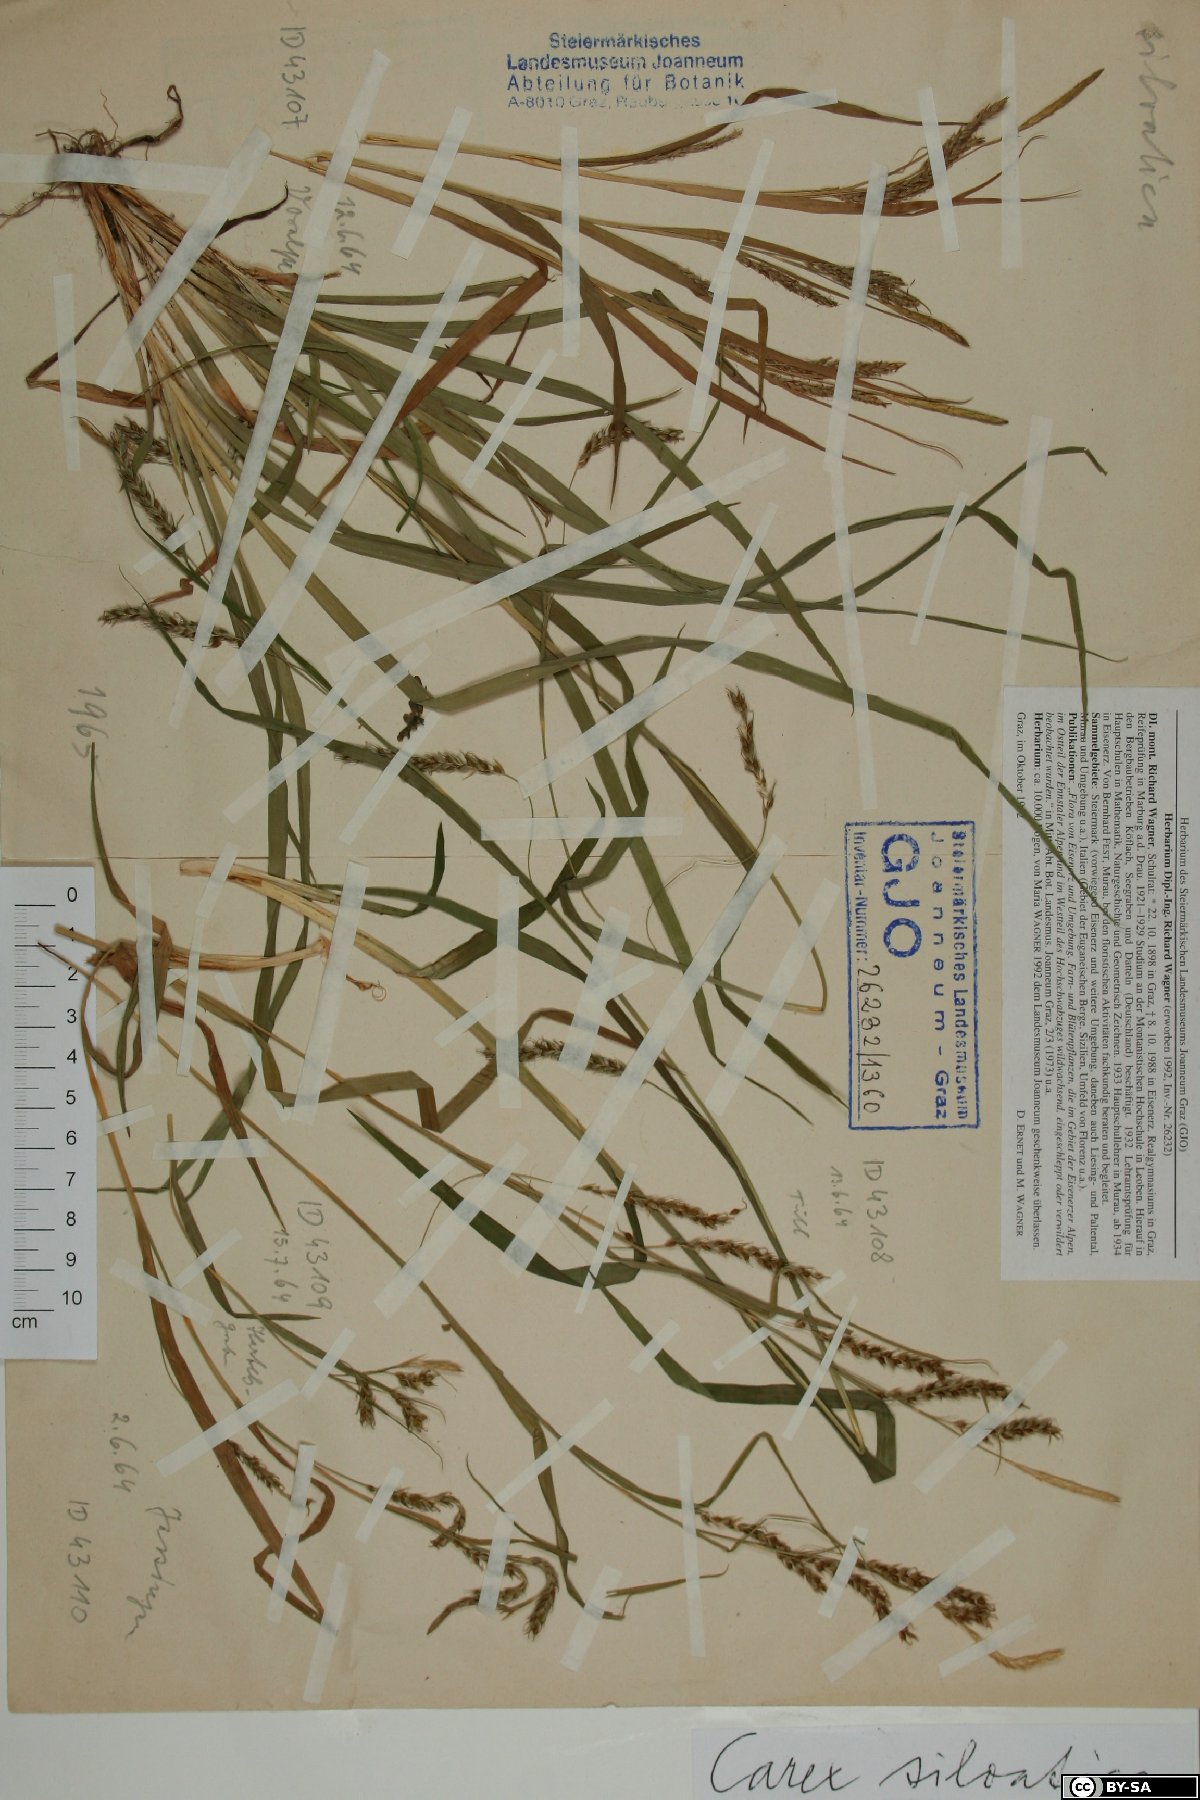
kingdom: Plantae
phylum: Tracheophyta
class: Liliopsida
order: Poales
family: Cyperaceae
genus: Carex
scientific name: Carex sylvatica
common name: Wood-sedge
